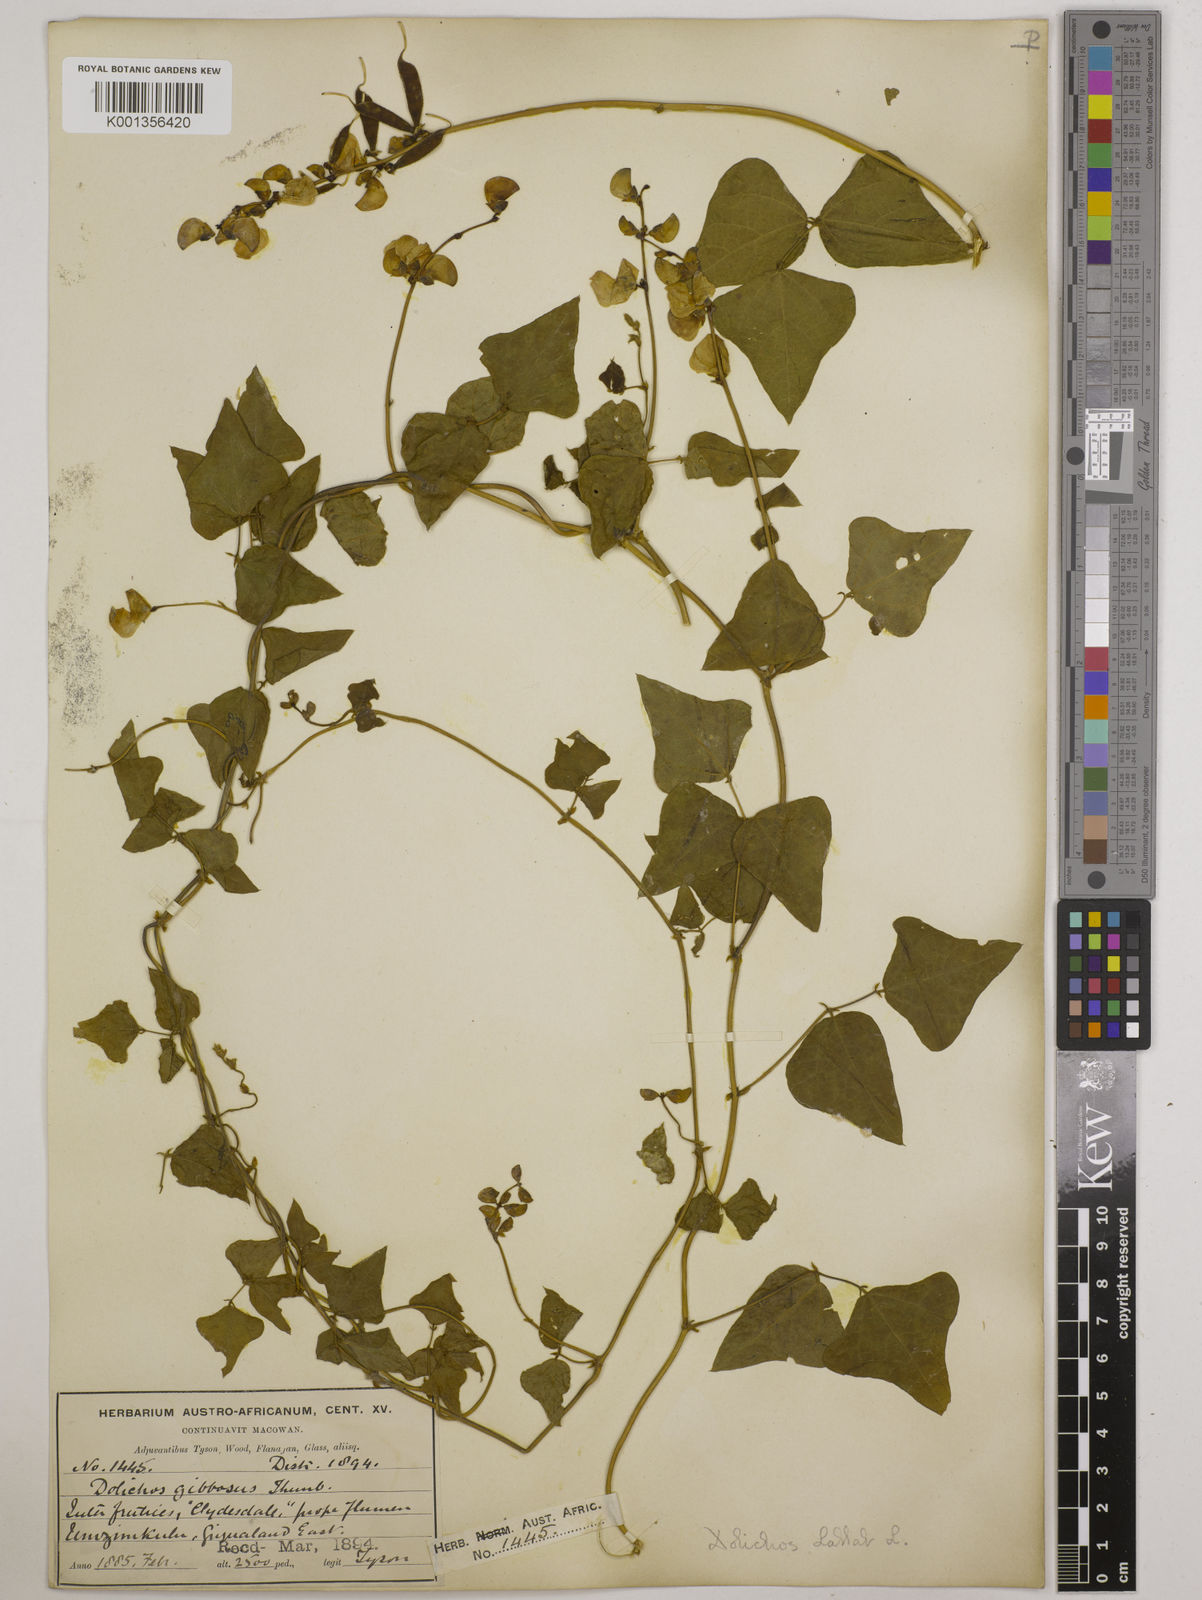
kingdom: Plantae
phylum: Tracheophyta
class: Magnoliopsida
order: Fabales
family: Fabaceae
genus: Lablab
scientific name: Lablab purpureus
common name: Lablab-bean
